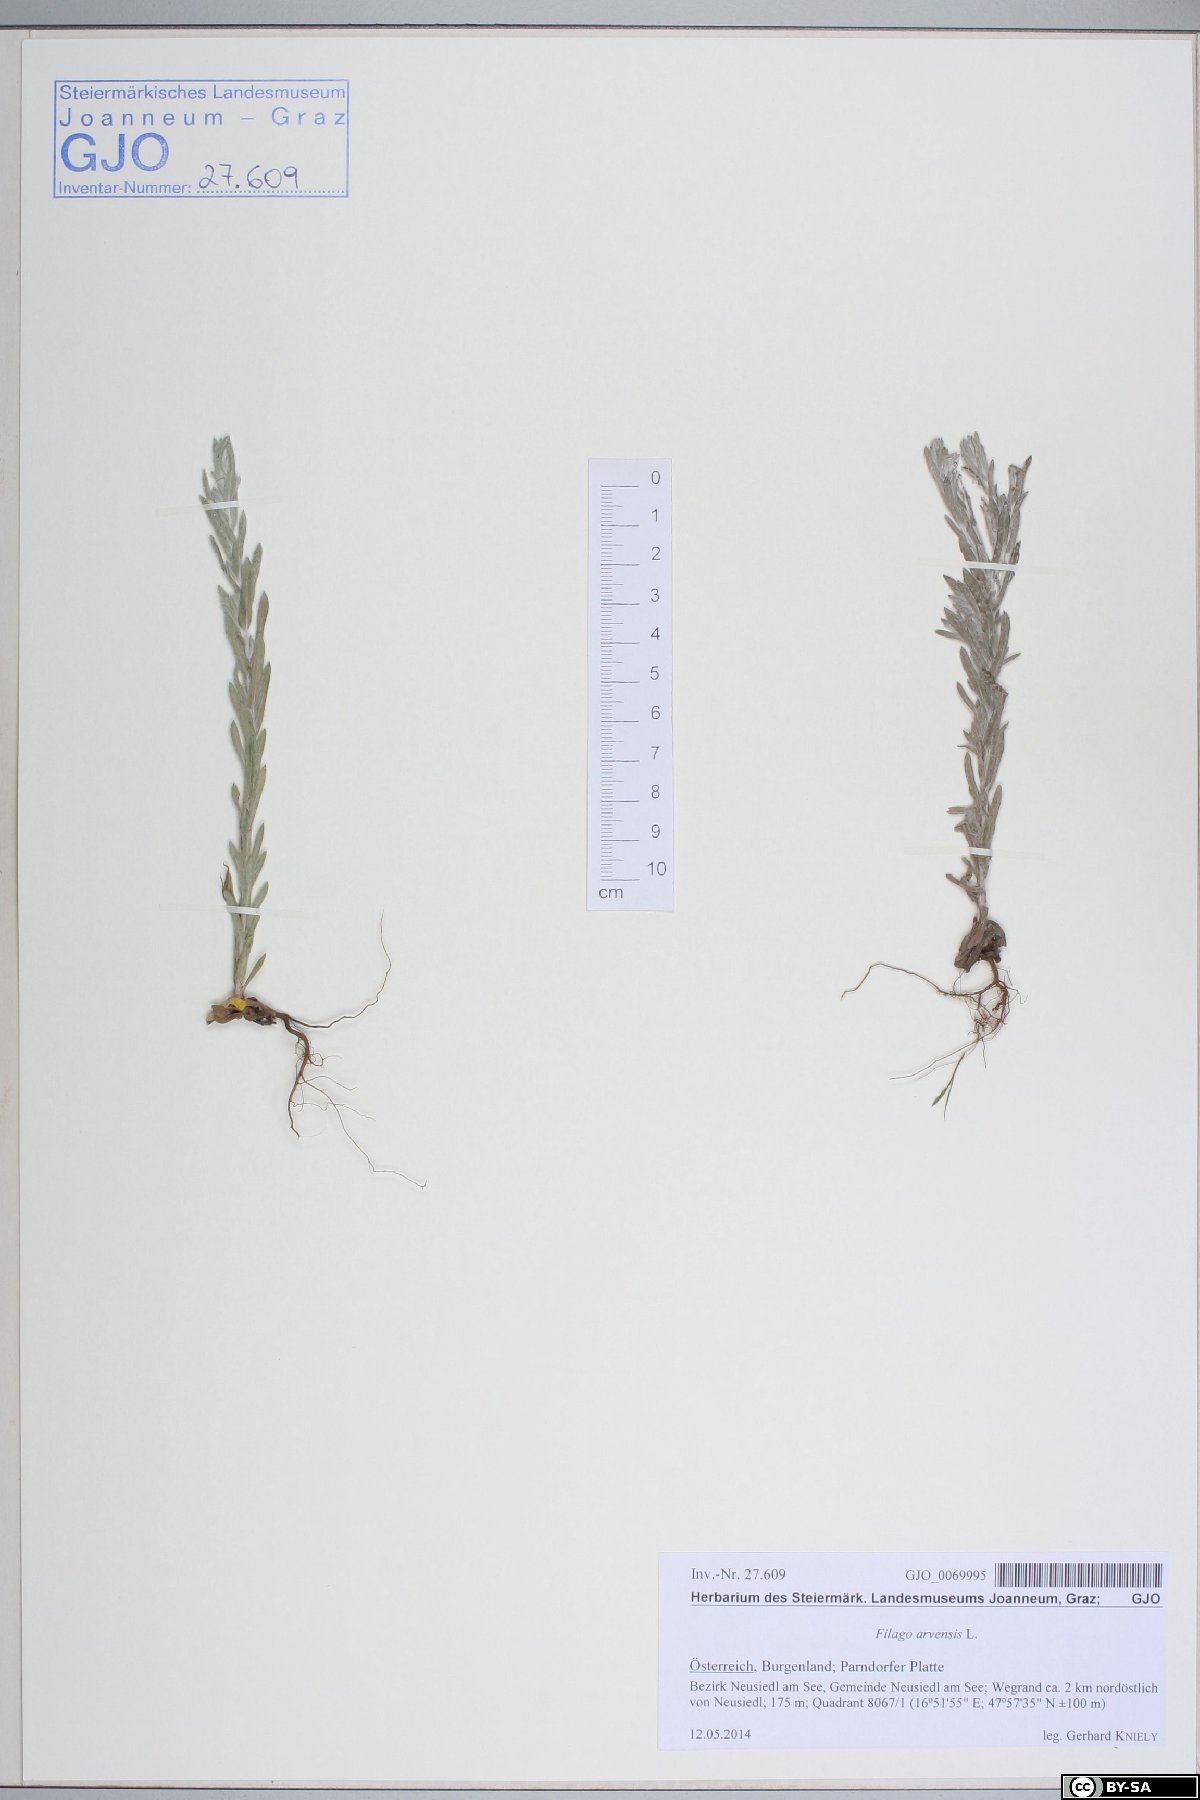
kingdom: Plantae
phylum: Tracheophyta
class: Magnoliopsida
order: Asterales
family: Asteraceae
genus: Filago
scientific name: Filago arvensis
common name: Field cudweed
